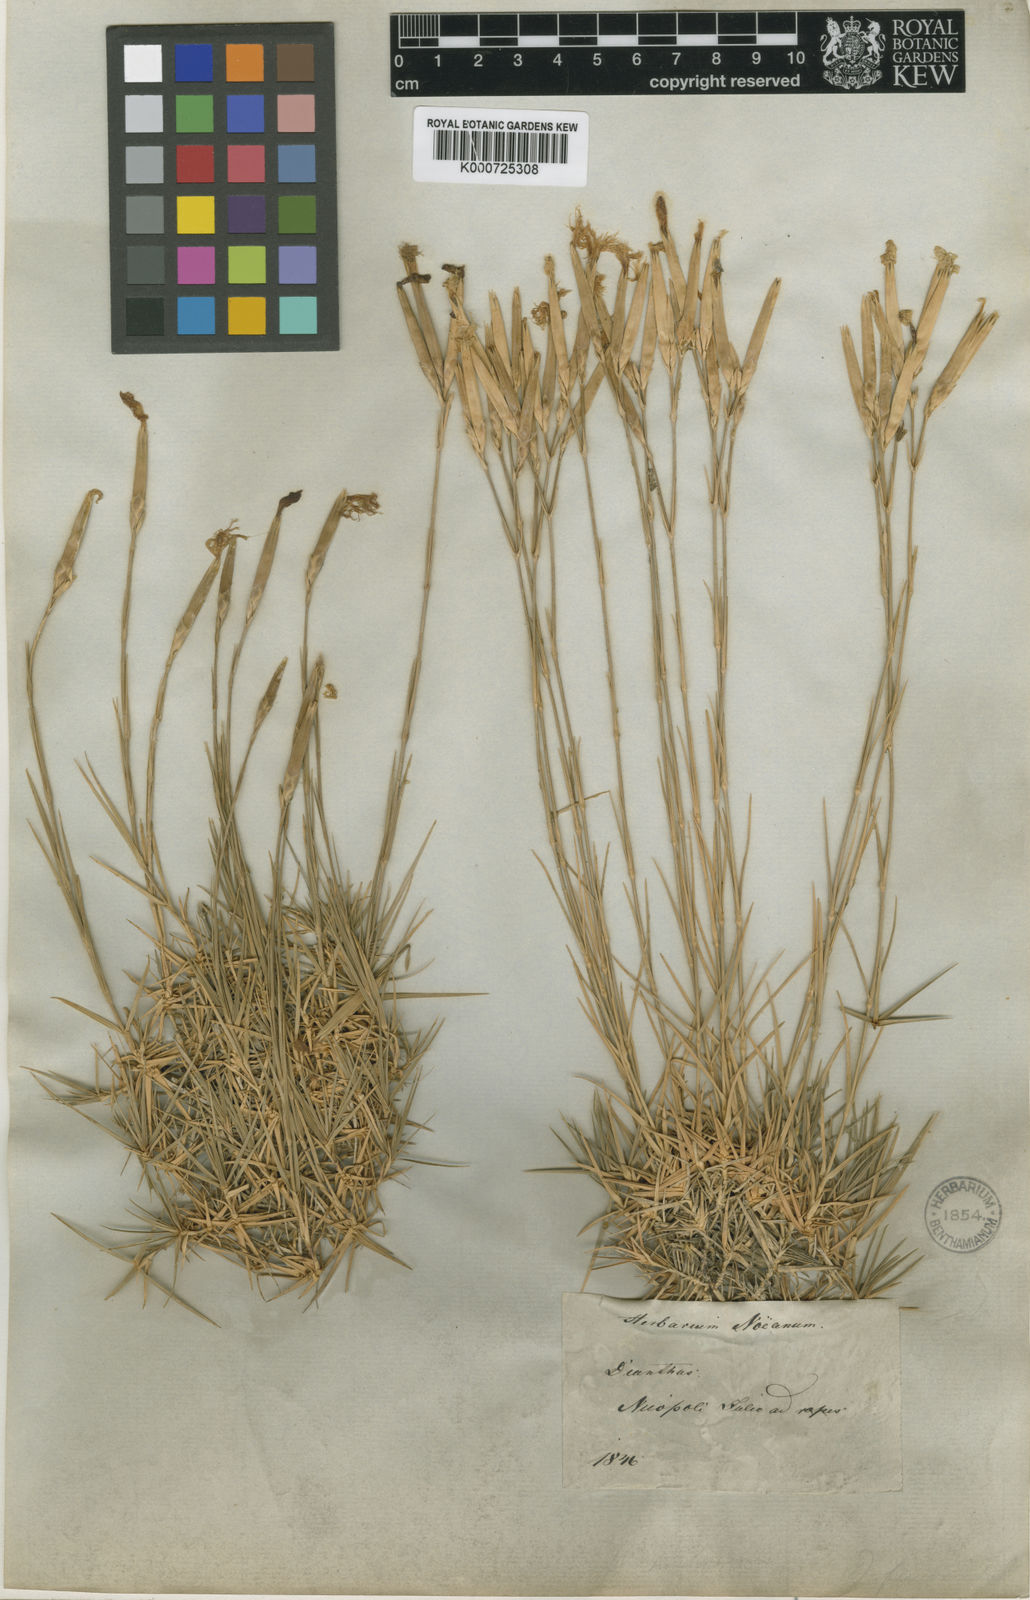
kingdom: Plantae
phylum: Tracheophyta
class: Magnoliopsida
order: Caryophyllales
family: Caryophyllaceae
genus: Dianthus
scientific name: Dianthus noeanus
